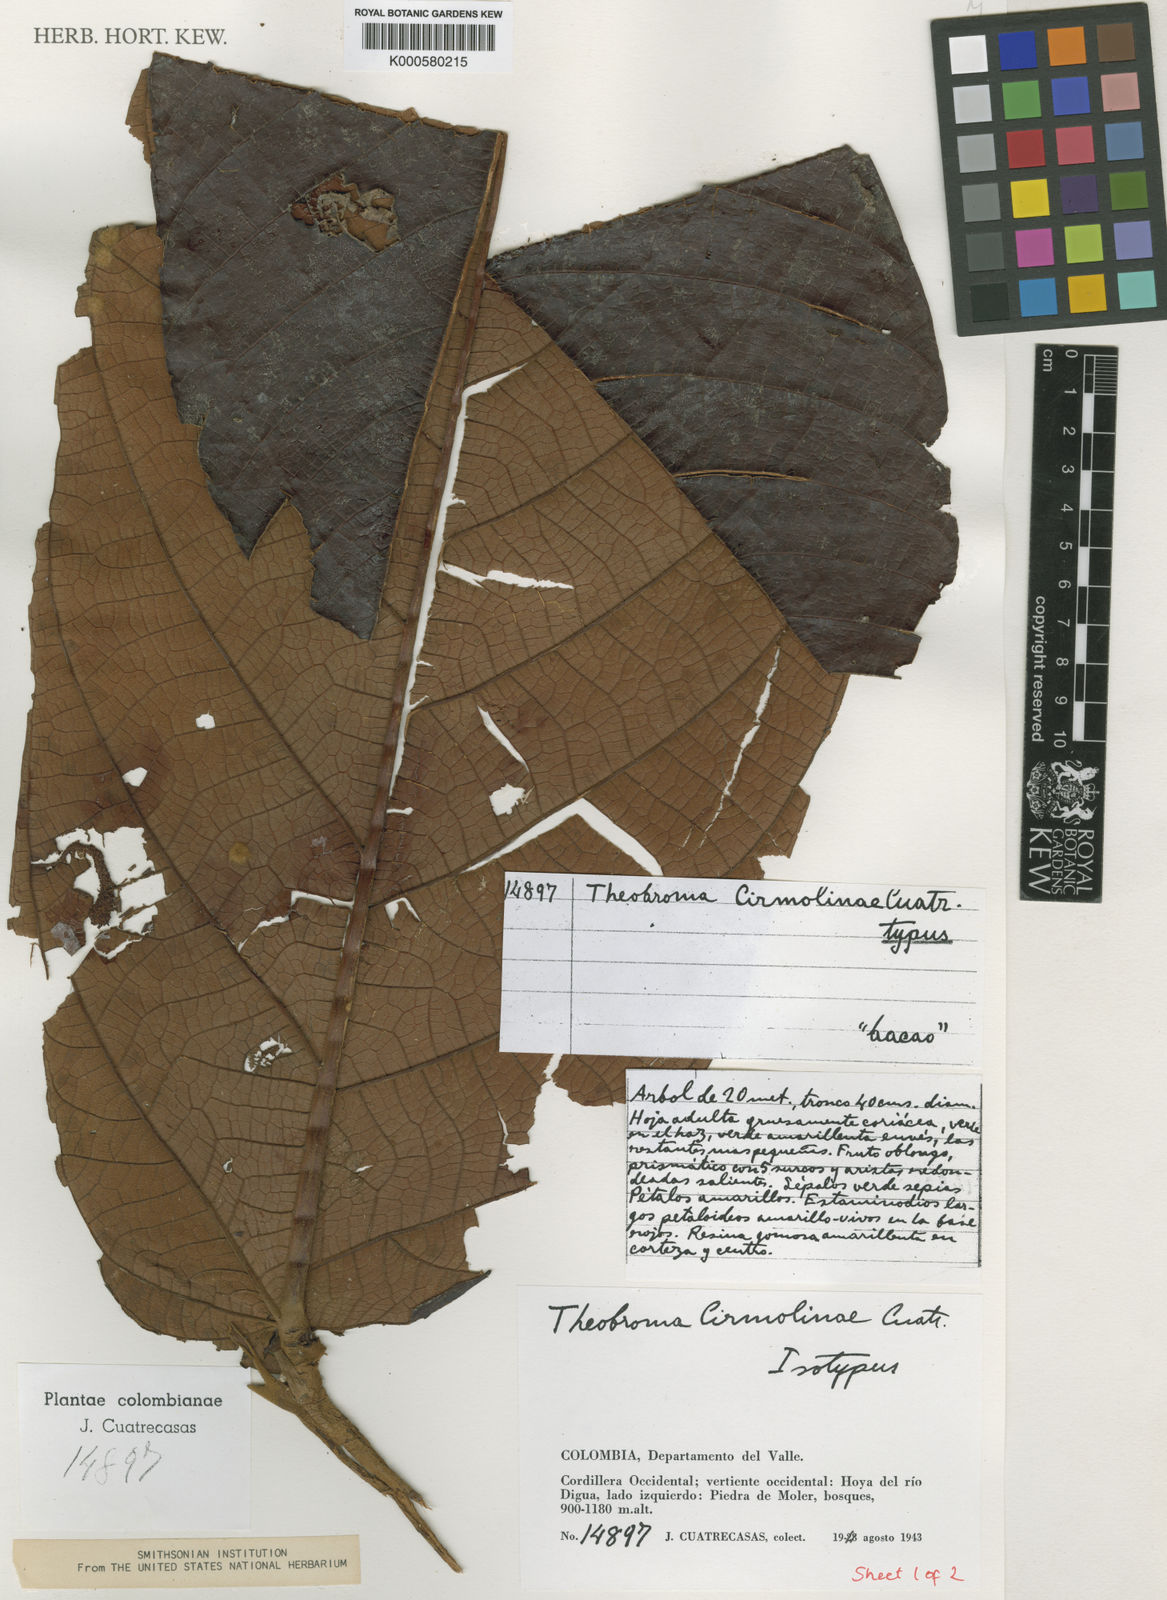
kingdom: Plantae
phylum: Tracheophyta
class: Magnoliopsida
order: Malvales
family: Malvaceae
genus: Theobroma
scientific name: Theobroma cirmolinae
